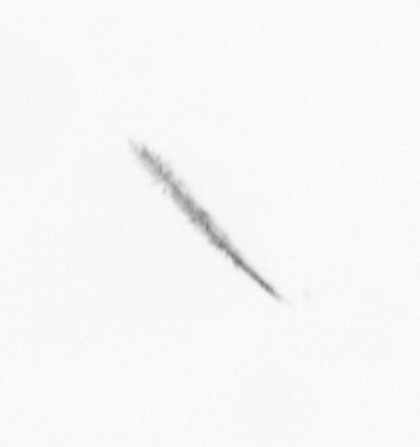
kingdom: Chromista
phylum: Ochrophyta
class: Bacillariophyceae
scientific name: Bacillariophyceae
